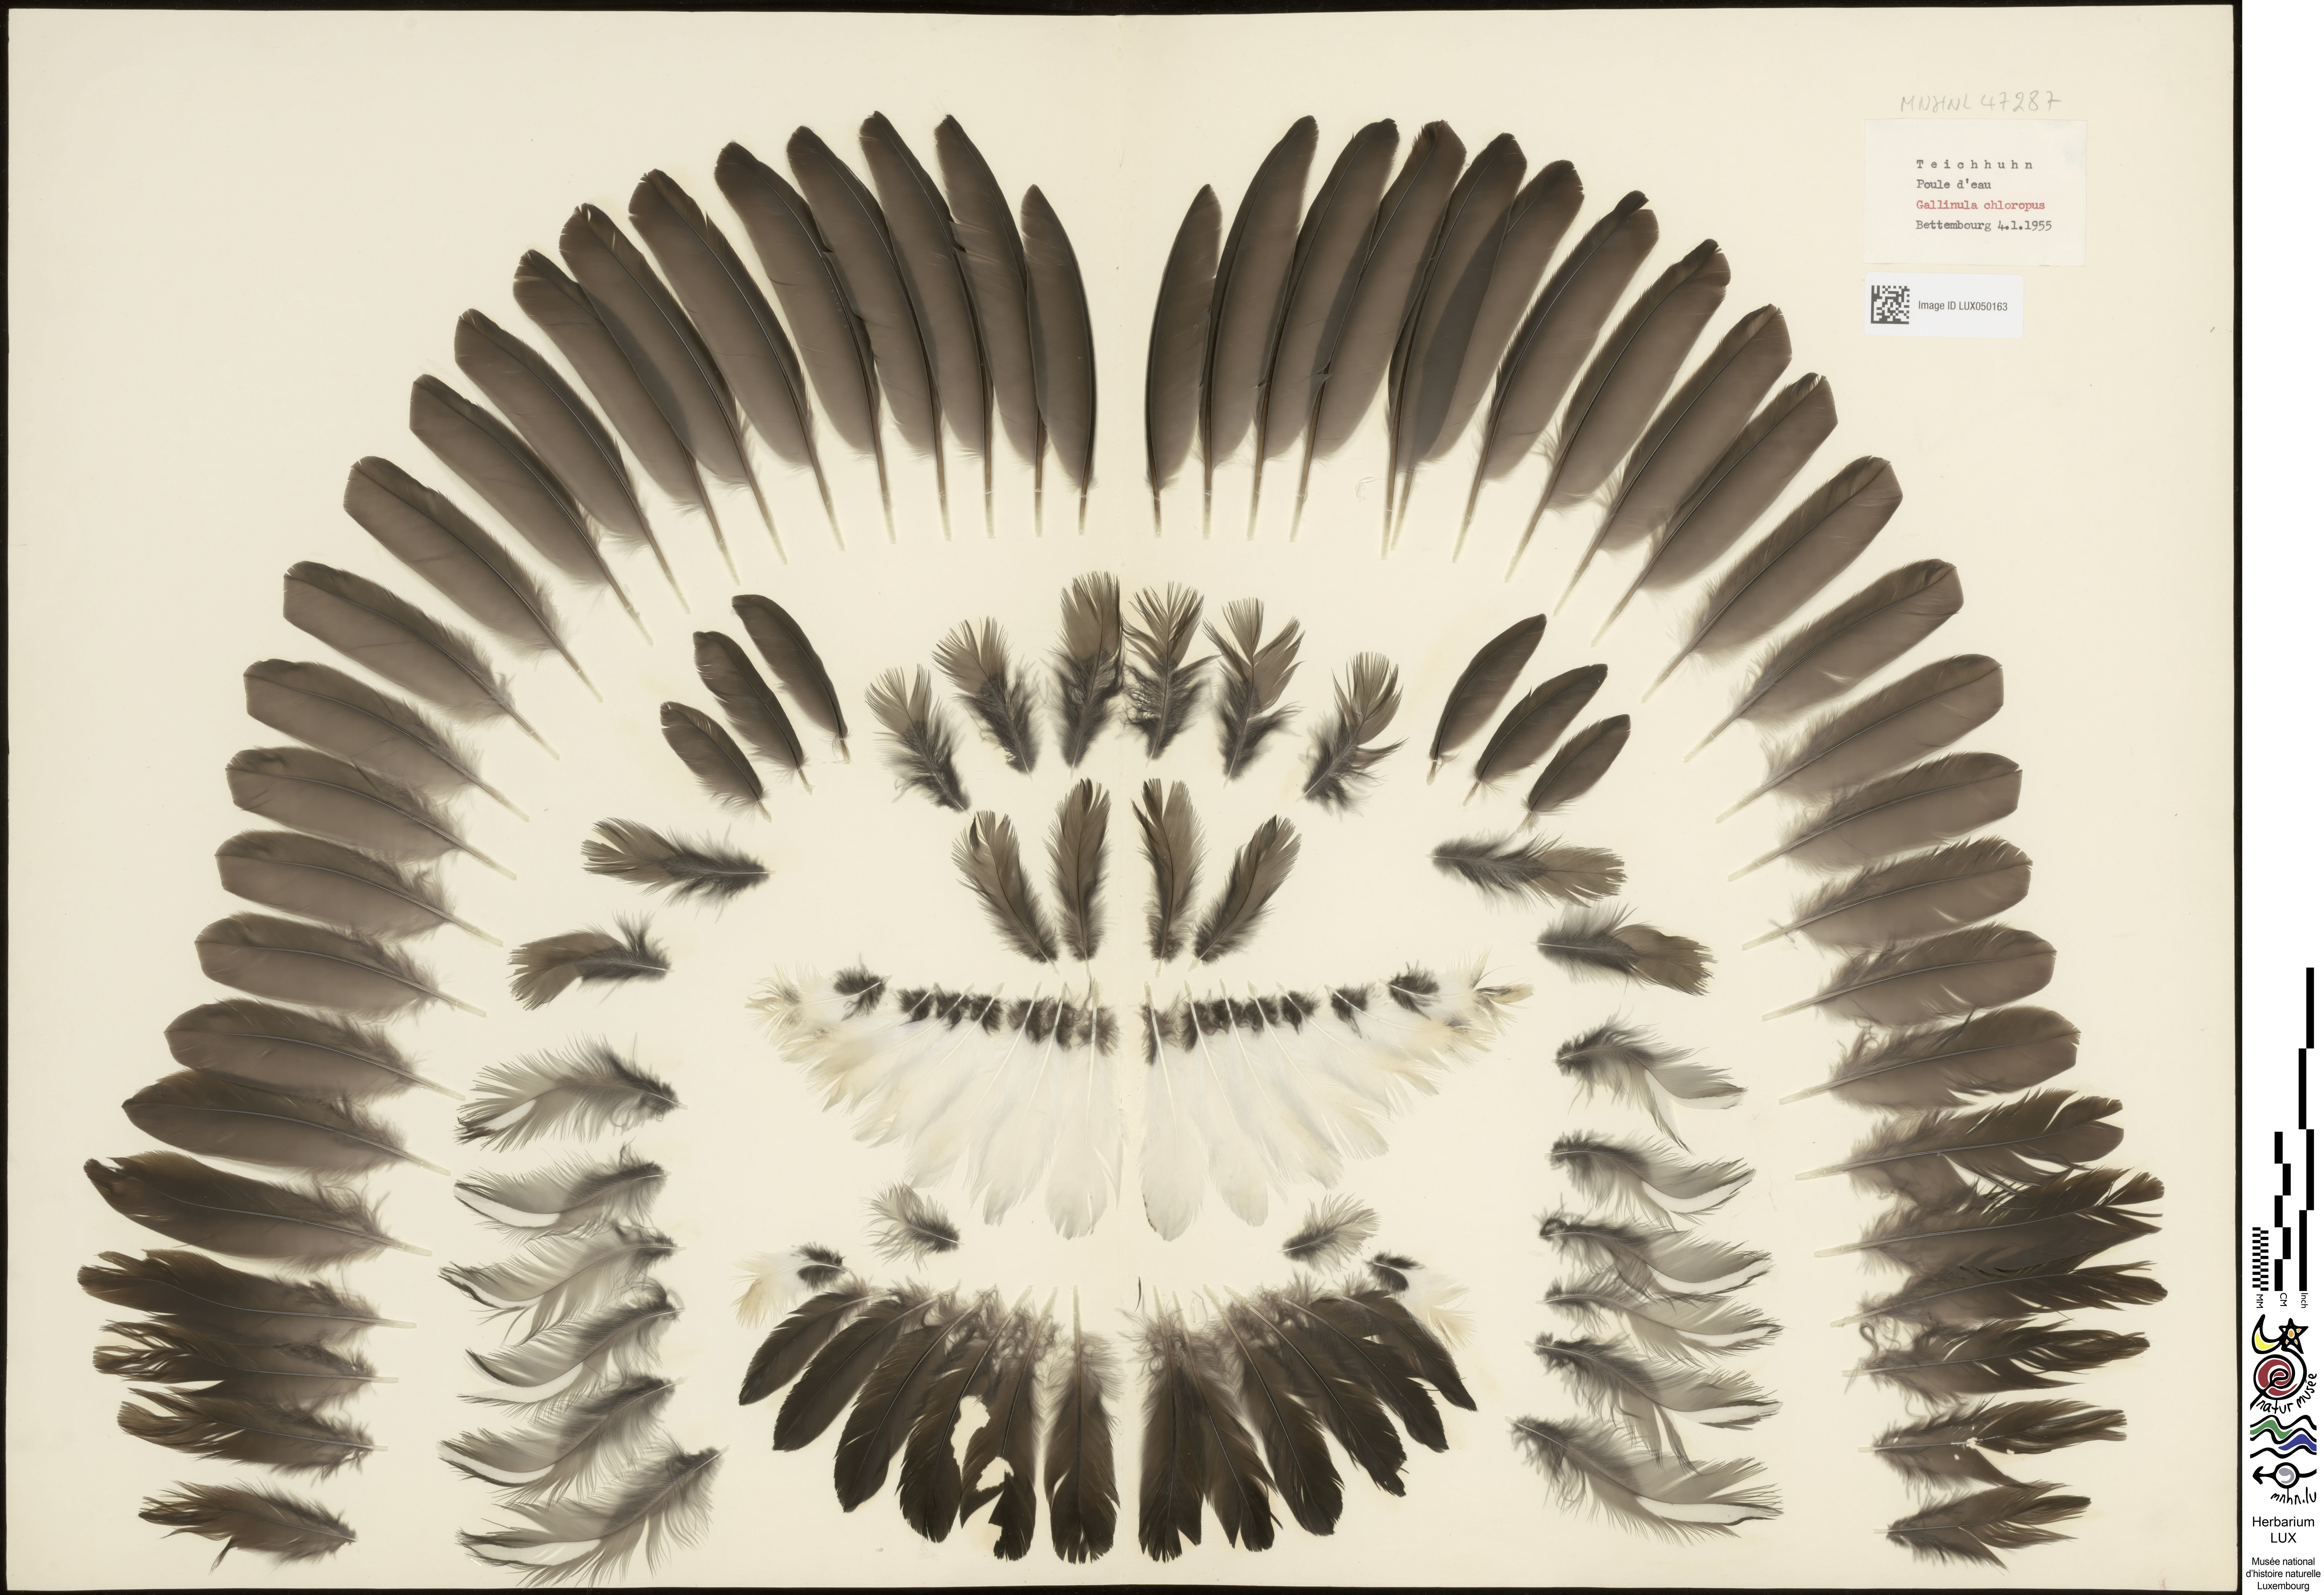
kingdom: Animalia
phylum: Chordata
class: Aves
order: Gruiformes
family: Rallidae
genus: Gallinula
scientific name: Gallinula chloropus
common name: Common moorhen
